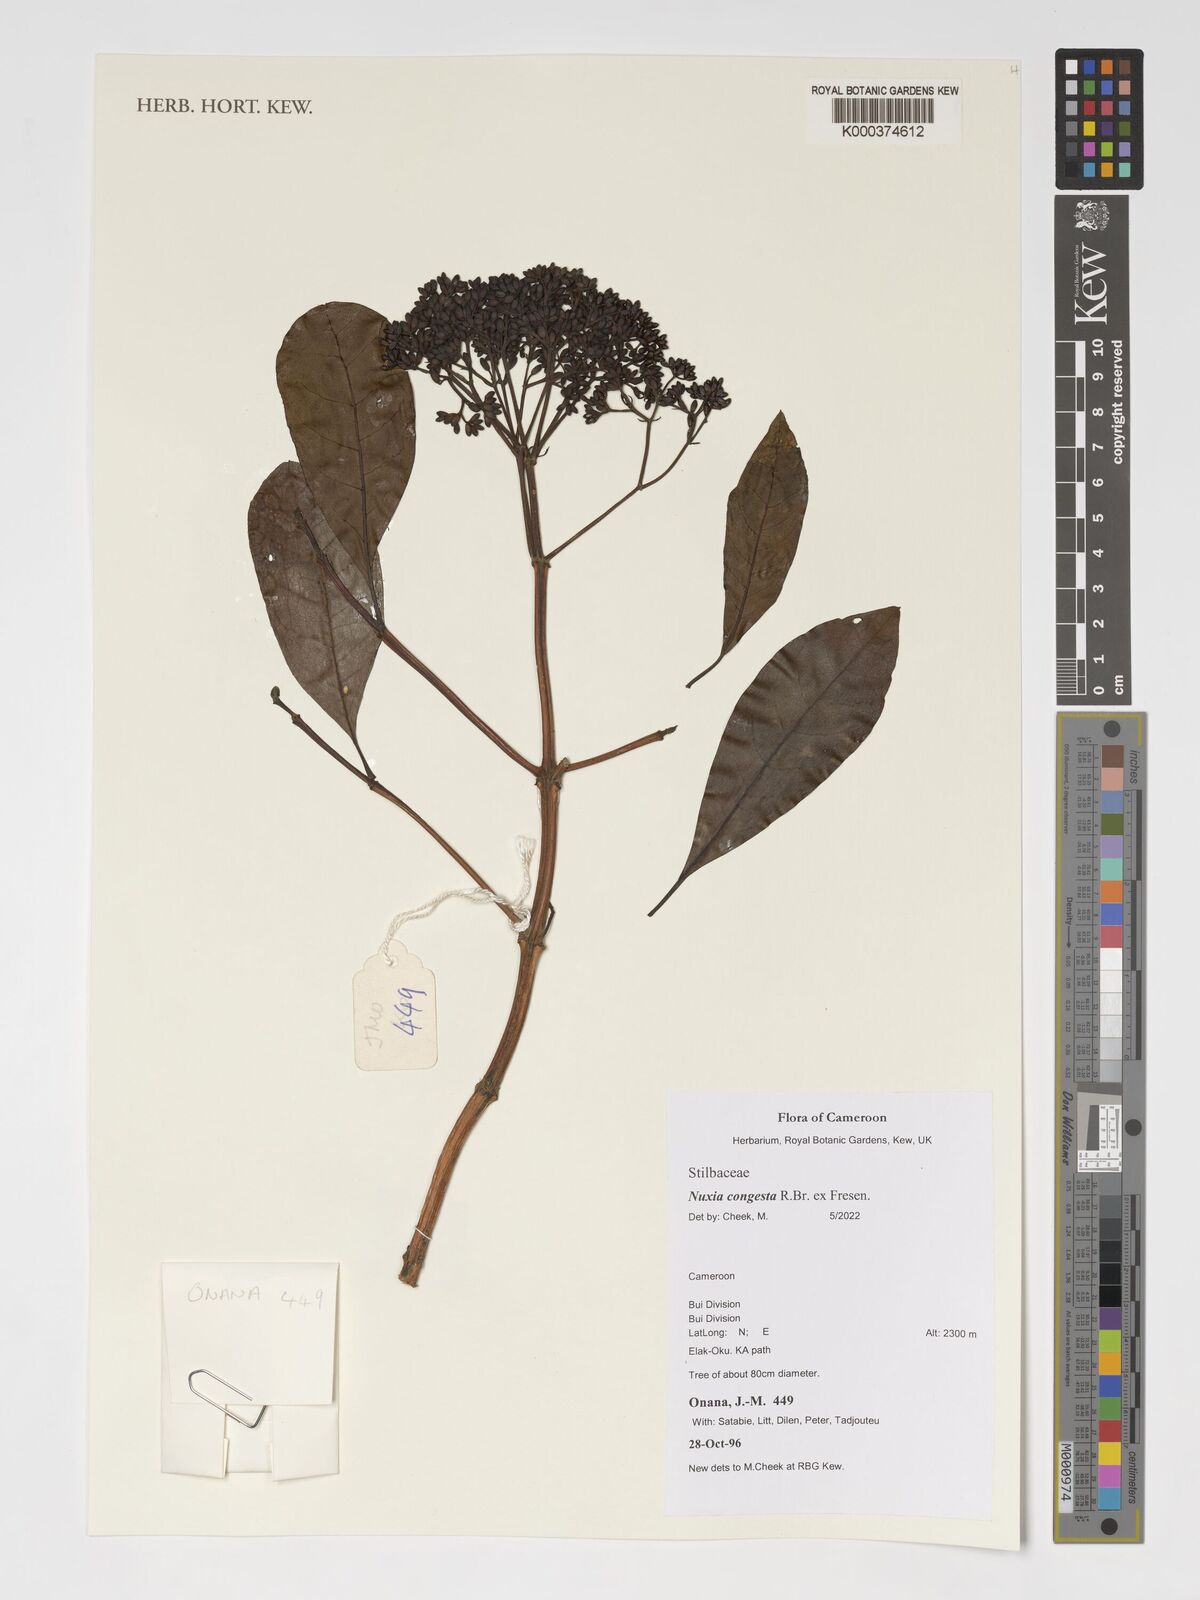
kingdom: Plantae
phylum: Tracheophyta
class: Magnoliopsida
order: Lamiales
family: Stilbaceae
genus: Nuxia
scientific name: Nuxia congesta
